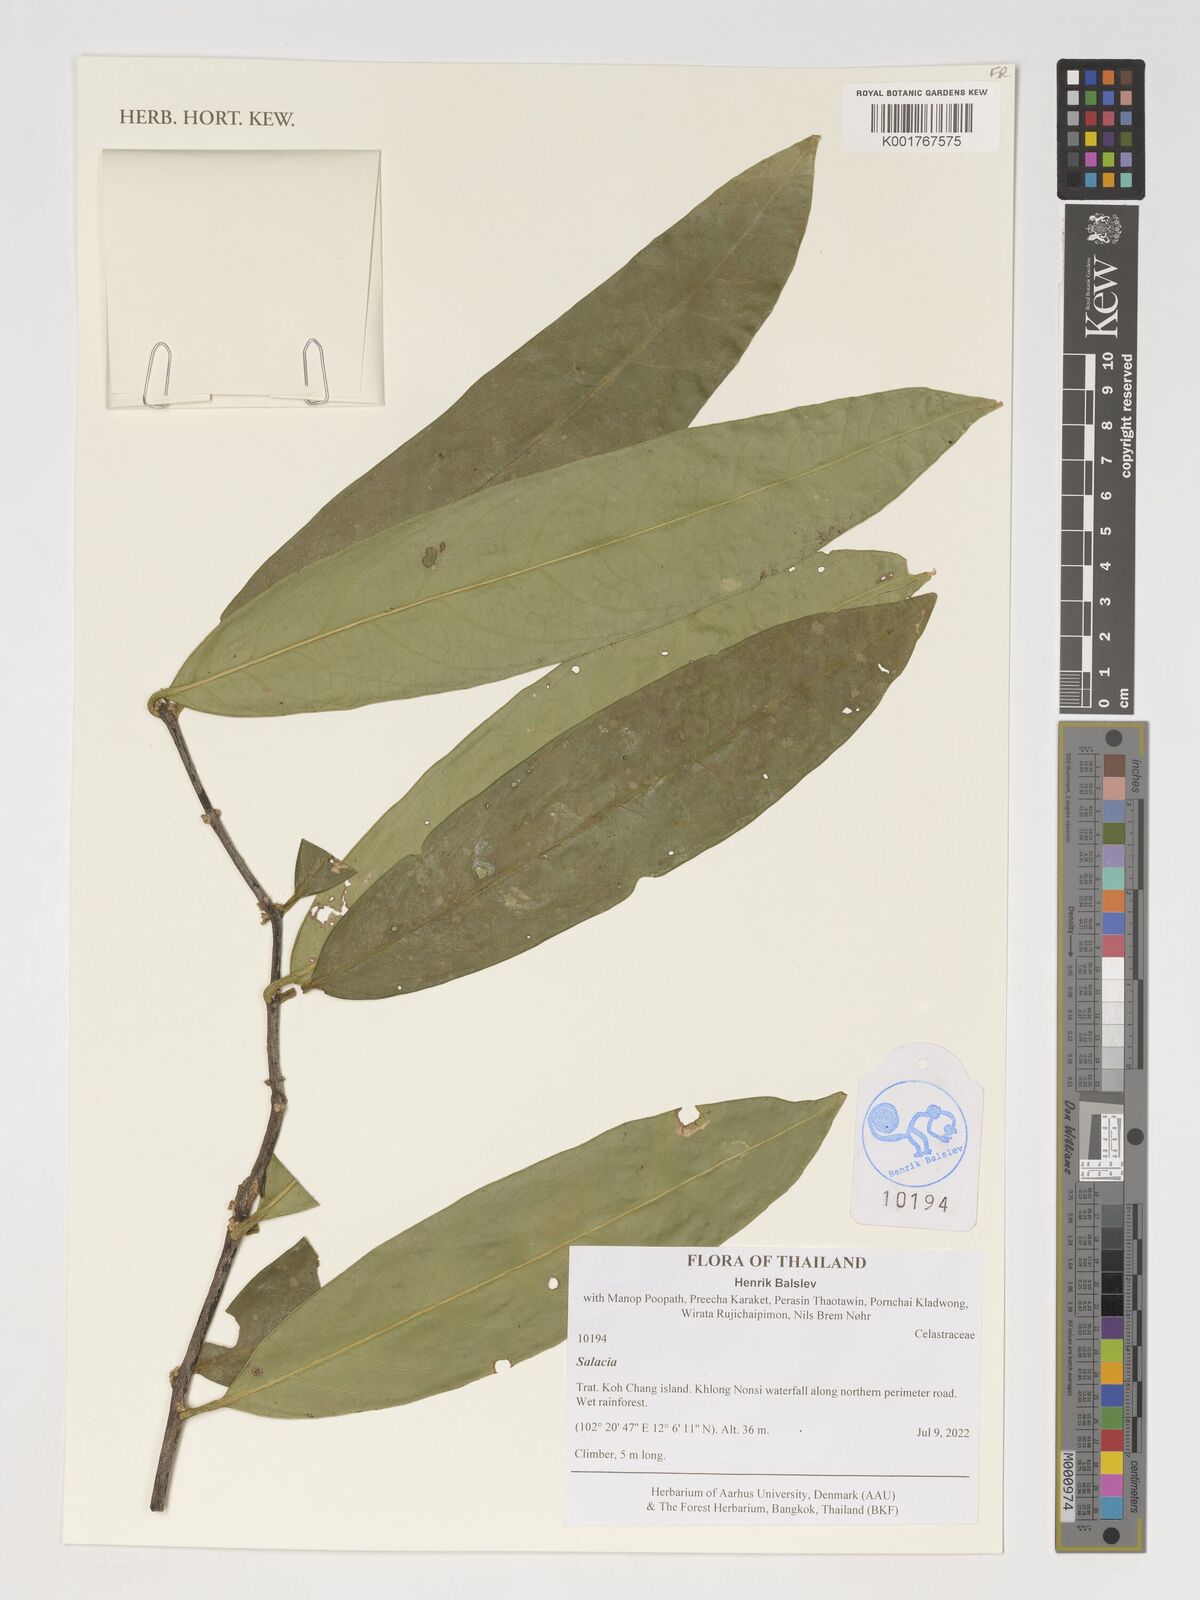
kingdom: Plantae
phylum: Tracheophyta
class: Magnoliopsida
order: Celastrales
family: Celastraceae
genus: Salacia
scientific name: Salacia
